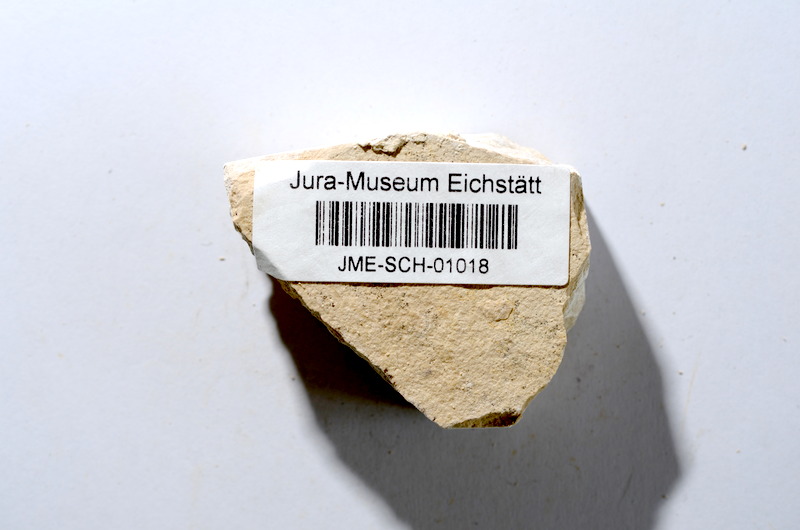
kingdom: Animalia
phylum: Chordata
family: Ascalaboidae
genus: Tharsis
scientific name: Tharsis dubius
